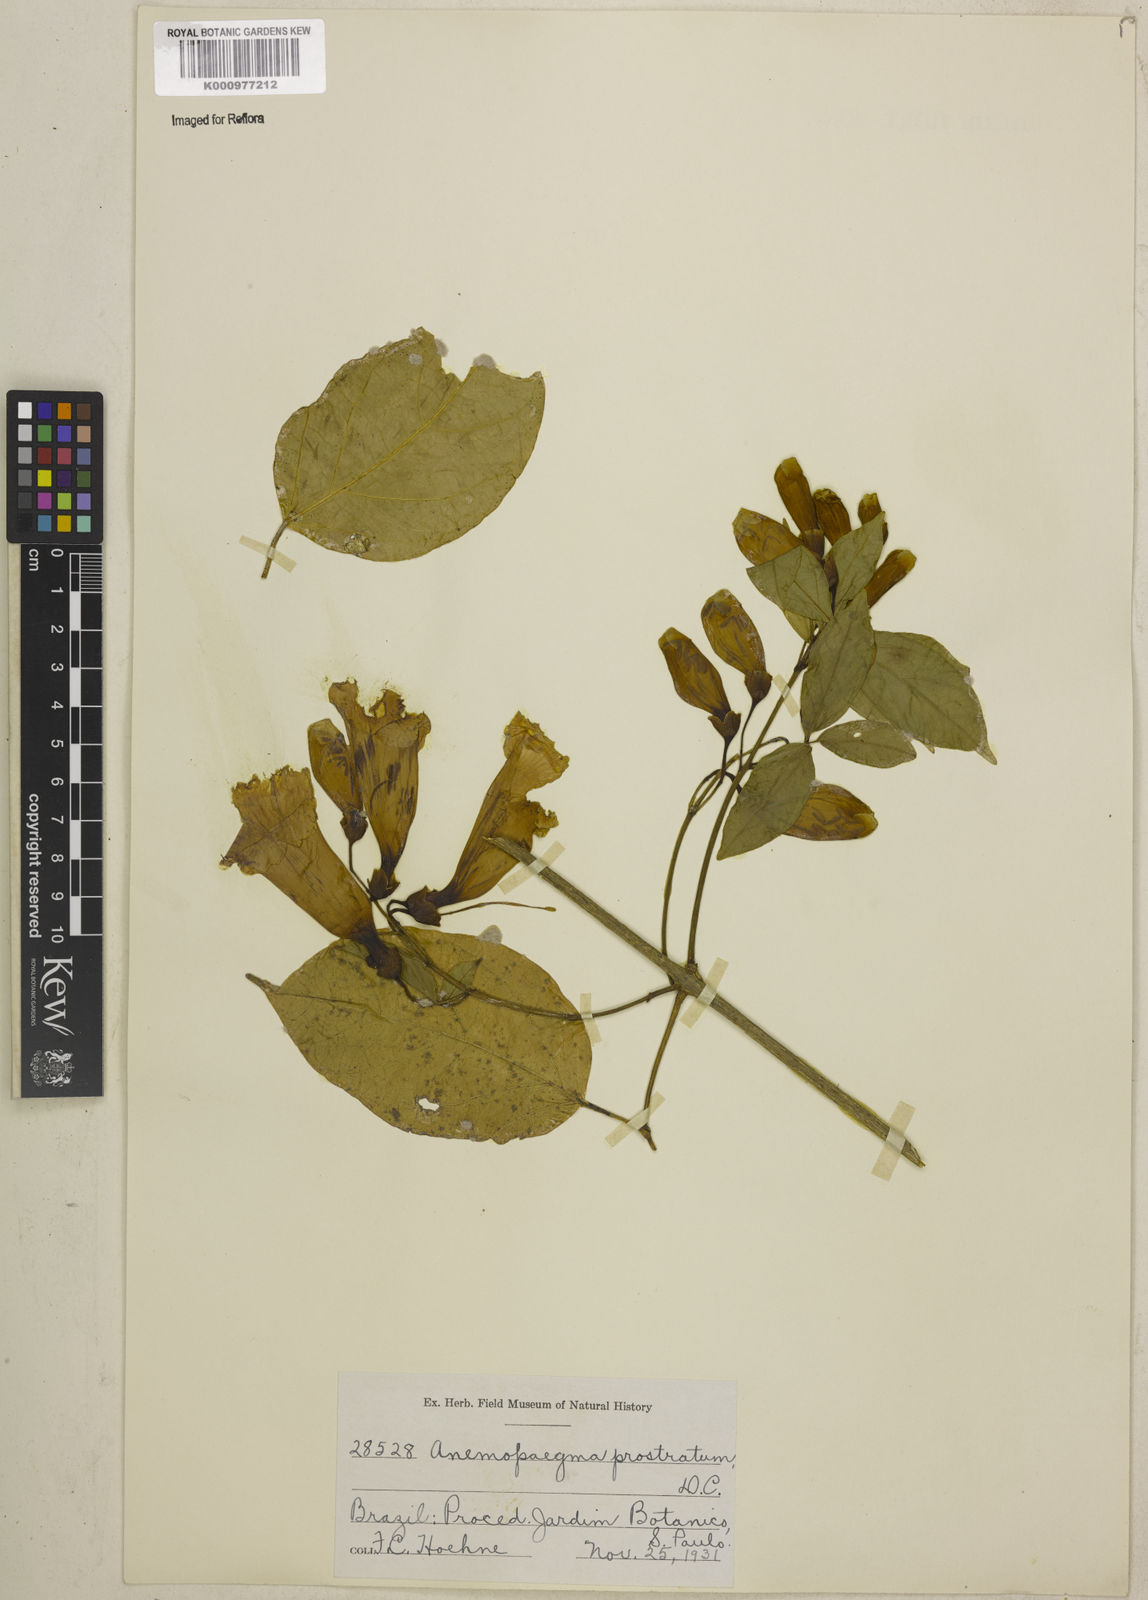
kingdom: Plantae
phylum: Tracheophyta
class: Magnoliopsida
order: Lamiales
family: Bignoniaceae
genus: Anemopaegma
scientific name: Anemopaegma prostratum
